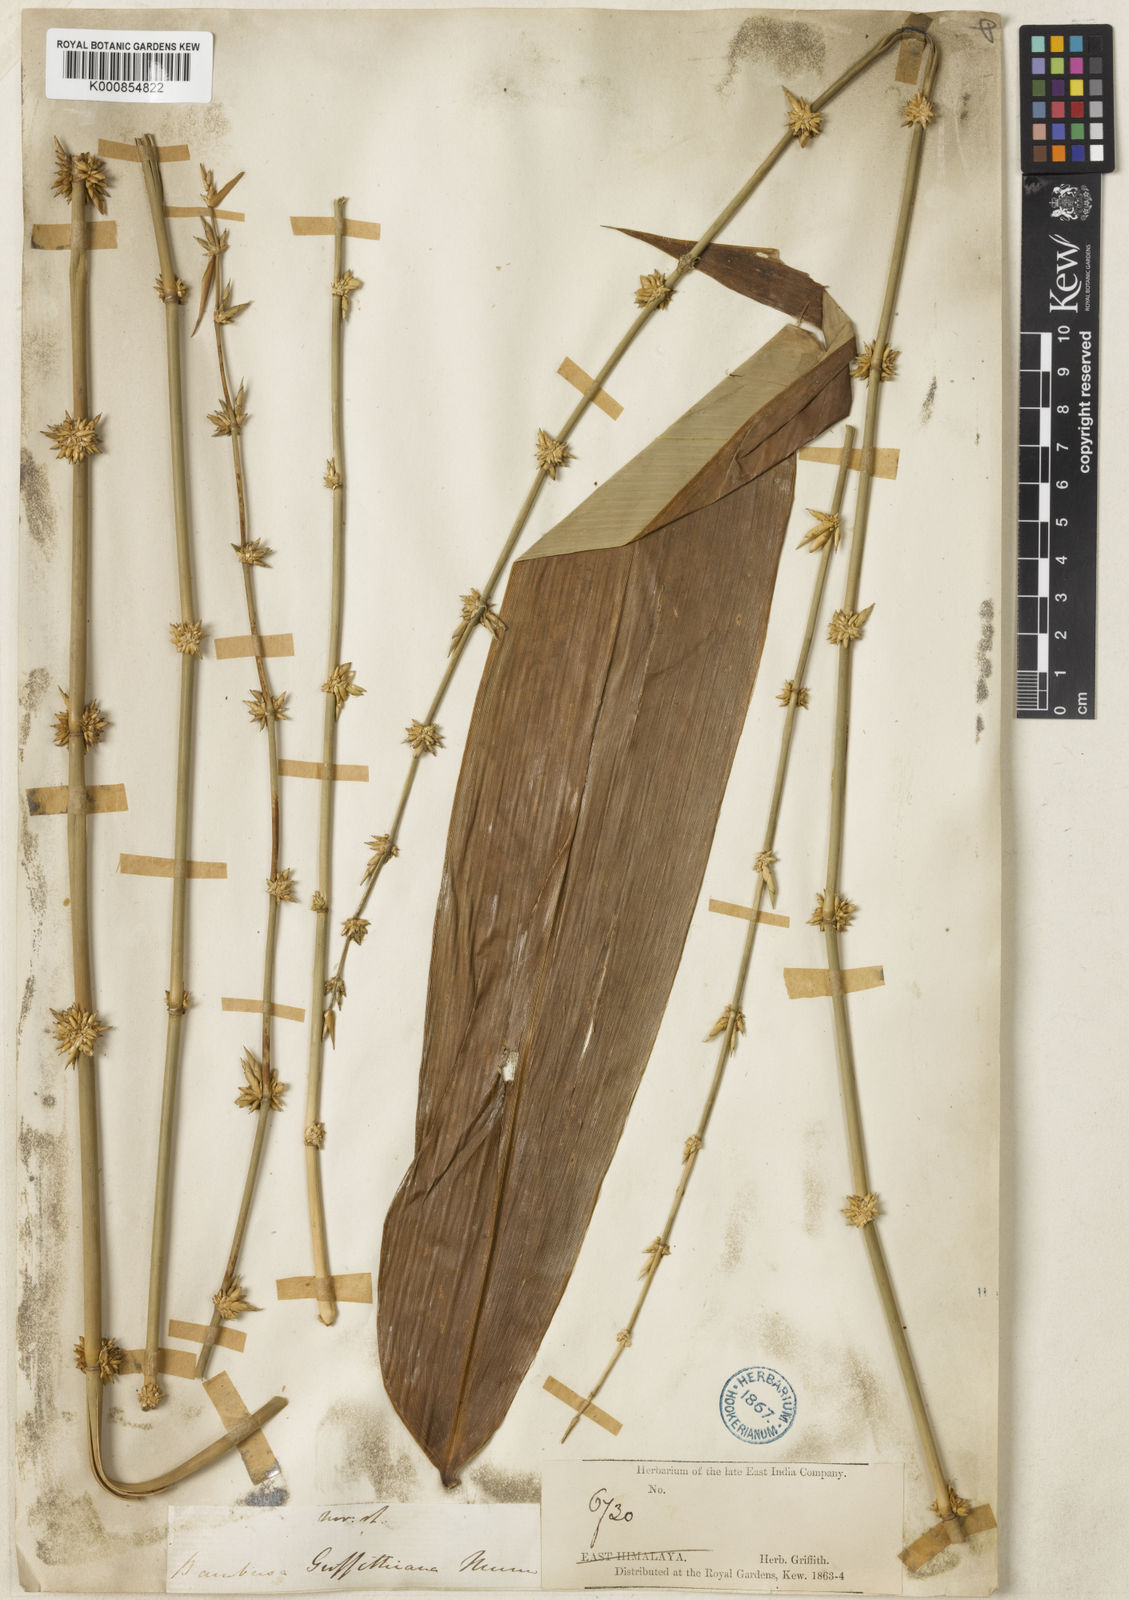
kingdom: Plantae
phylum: Tracheophyta
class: Liliopsida
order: Poales
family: Poaceae
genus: Bambusa
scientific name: Bambusa griffithiana
